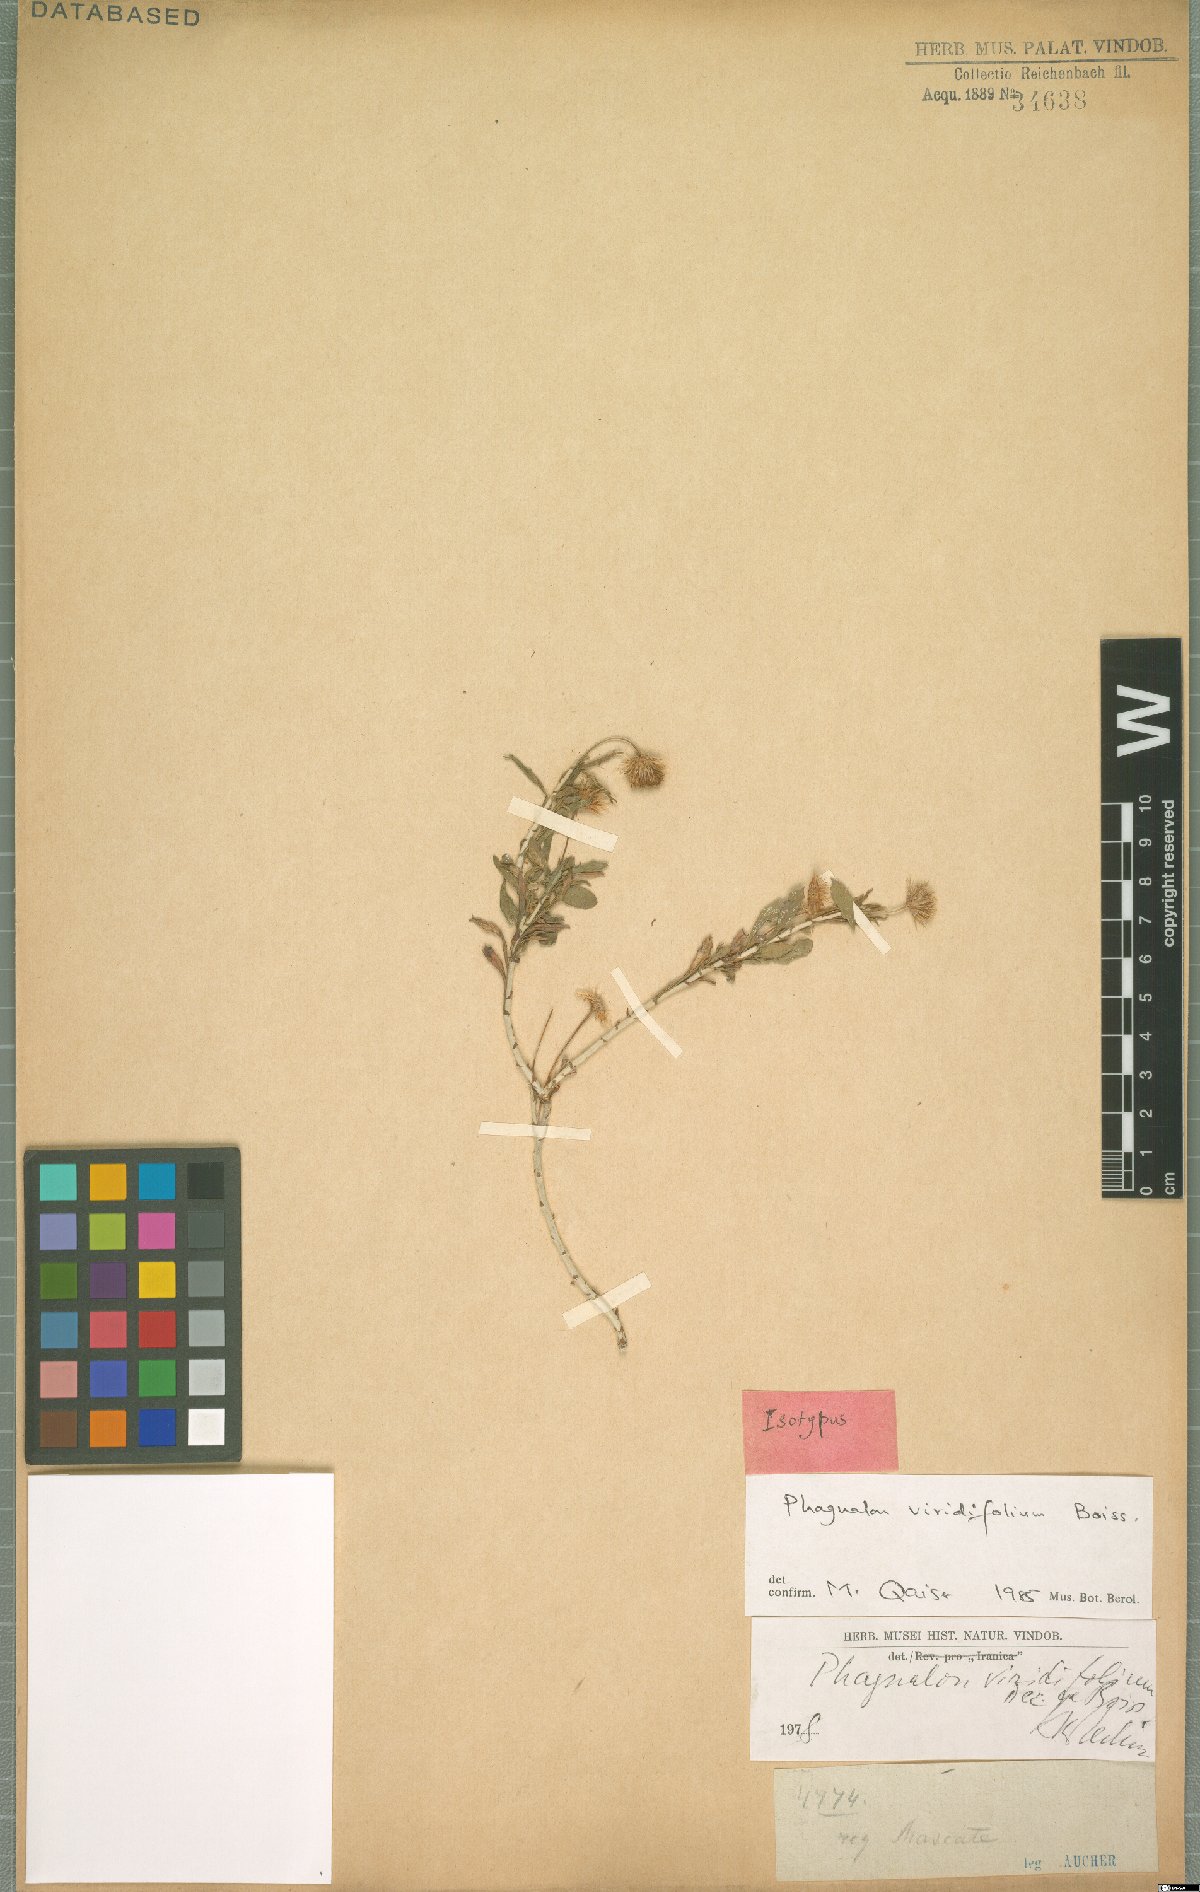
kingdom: Plantae
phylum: Tracheophyta
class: Magnoliopsida
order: Asterales
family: Asteraceae
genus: Phagnalon
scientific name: Phagnalon schweinfurthii
